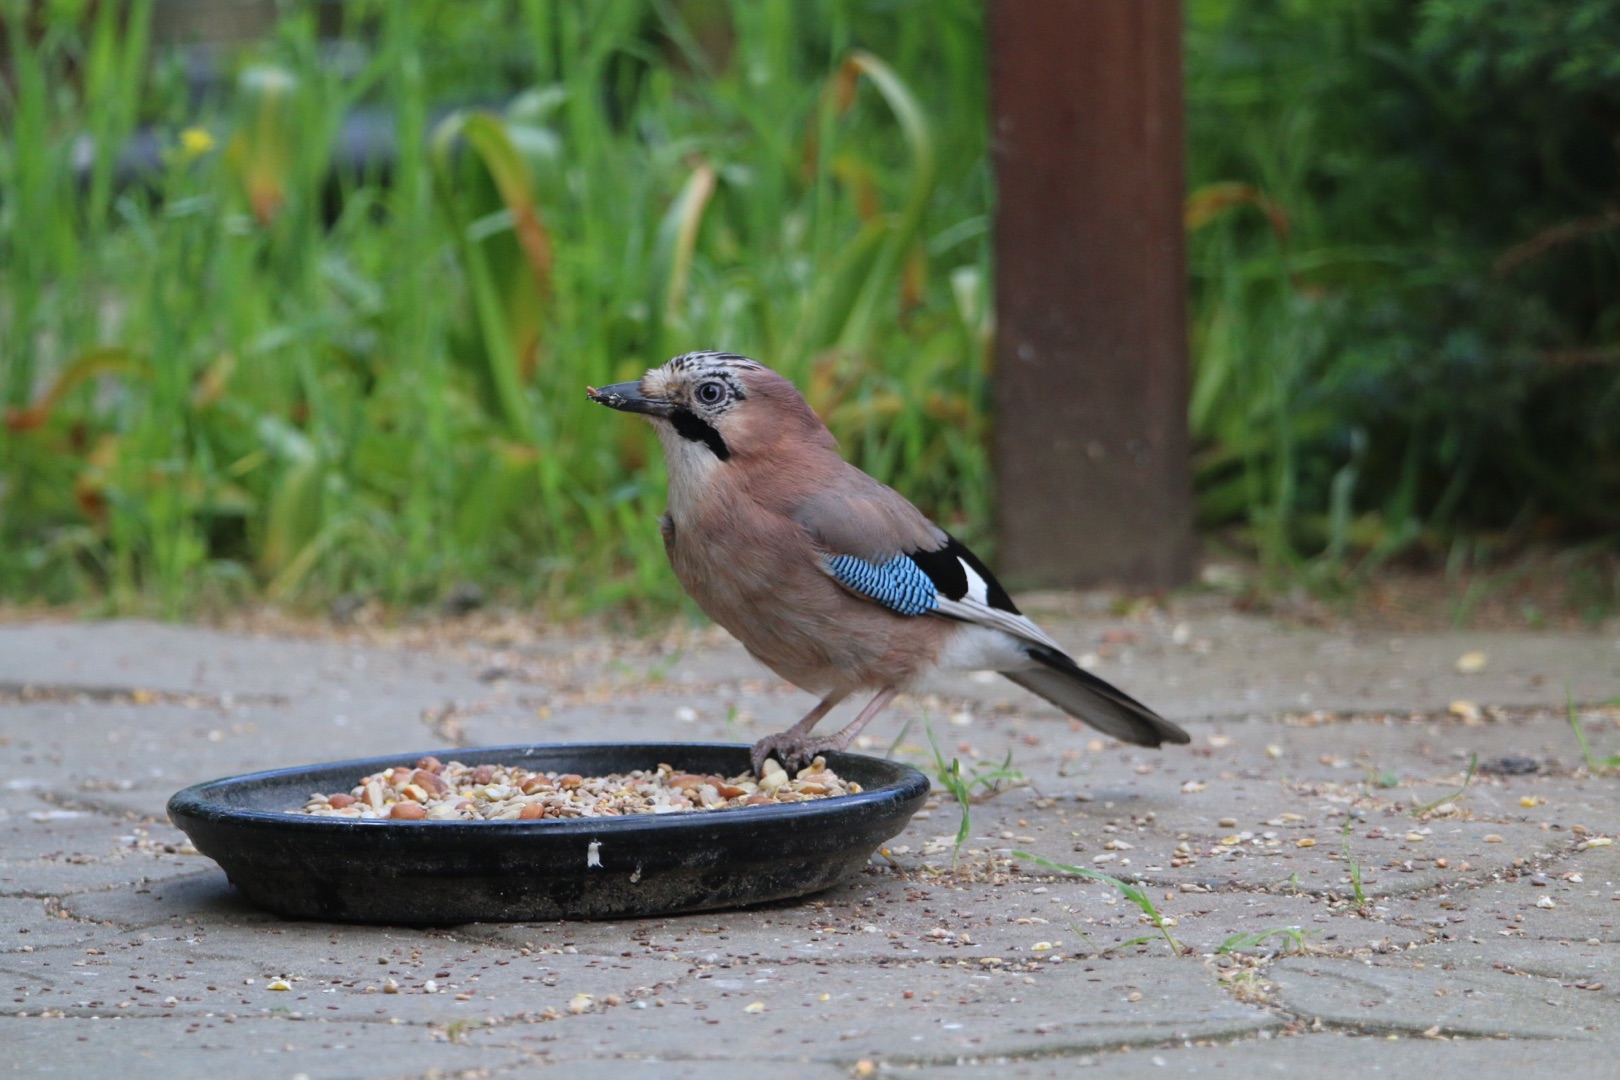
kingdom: Animalia
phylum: Chordata
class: Aves
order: Passeriformes
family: Corvidae
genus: Garrulus
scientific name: Garrulus glandarius
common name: Skovskade
